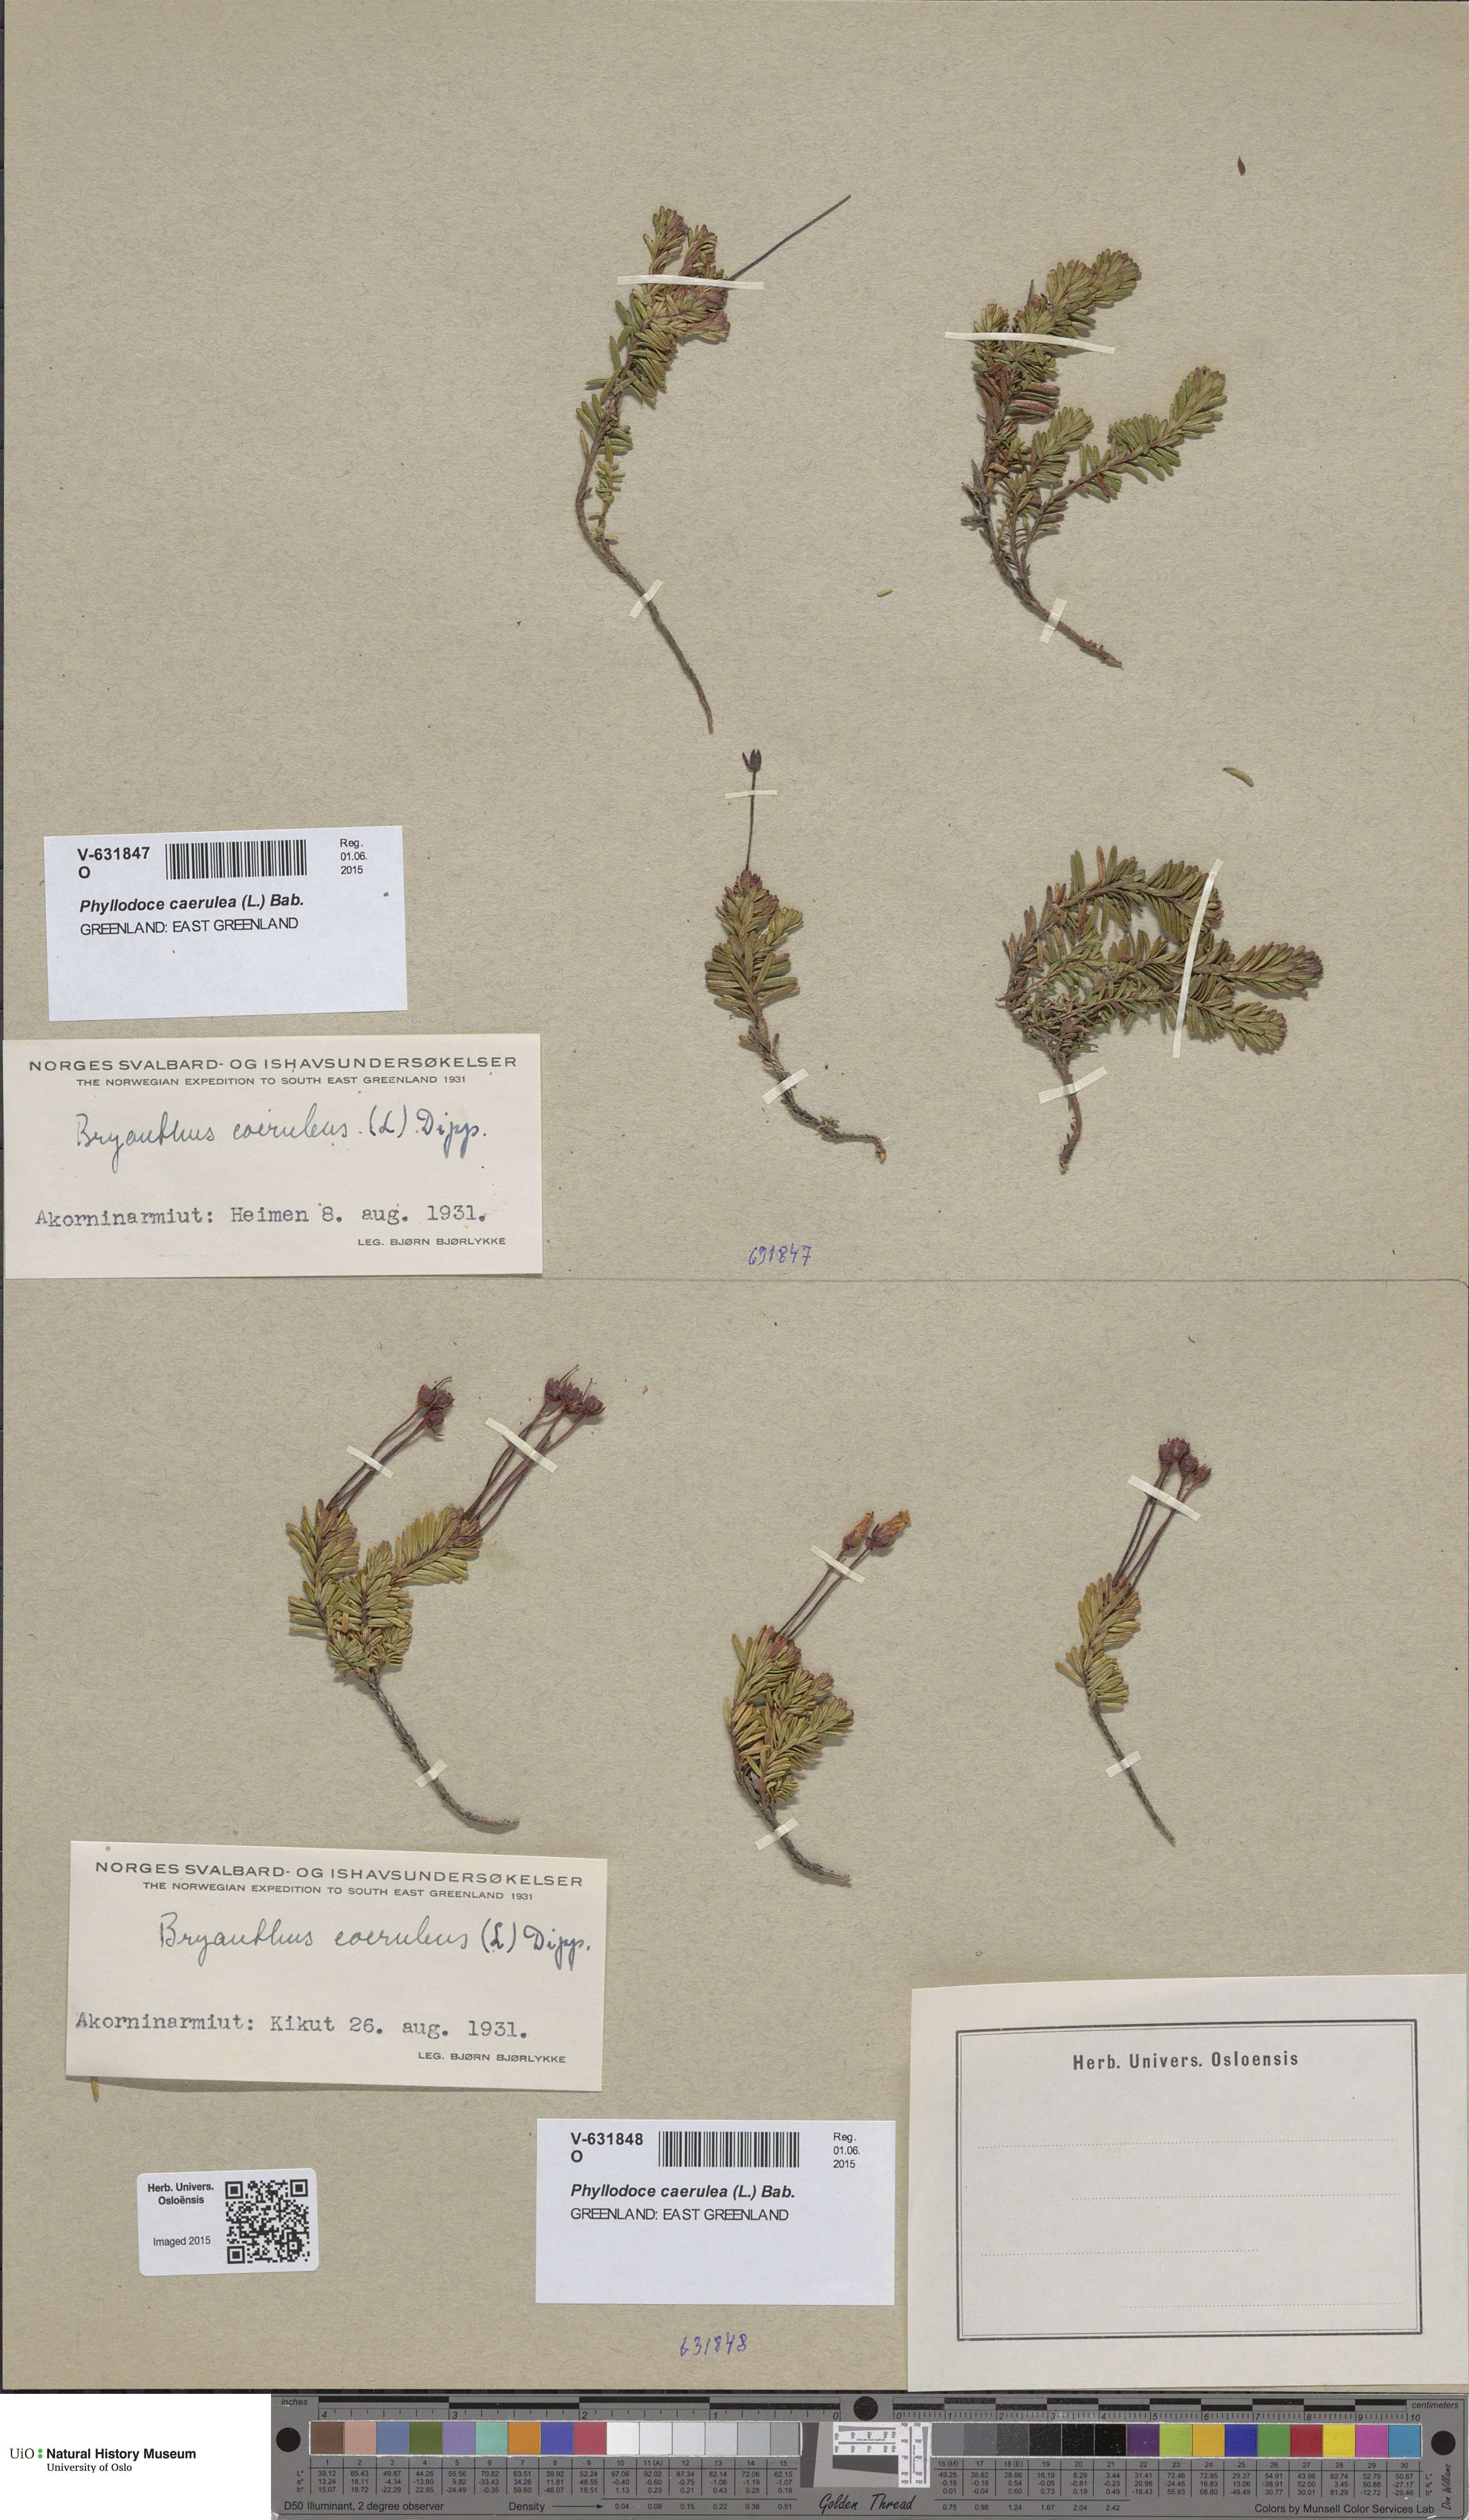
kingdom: Plantae
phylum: Tracheophyta
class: Magnoliopsida
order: Ericales
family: Ericaceae
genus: Phyllodoce
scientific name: Phyllodoce caerulea
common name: Blue heath
